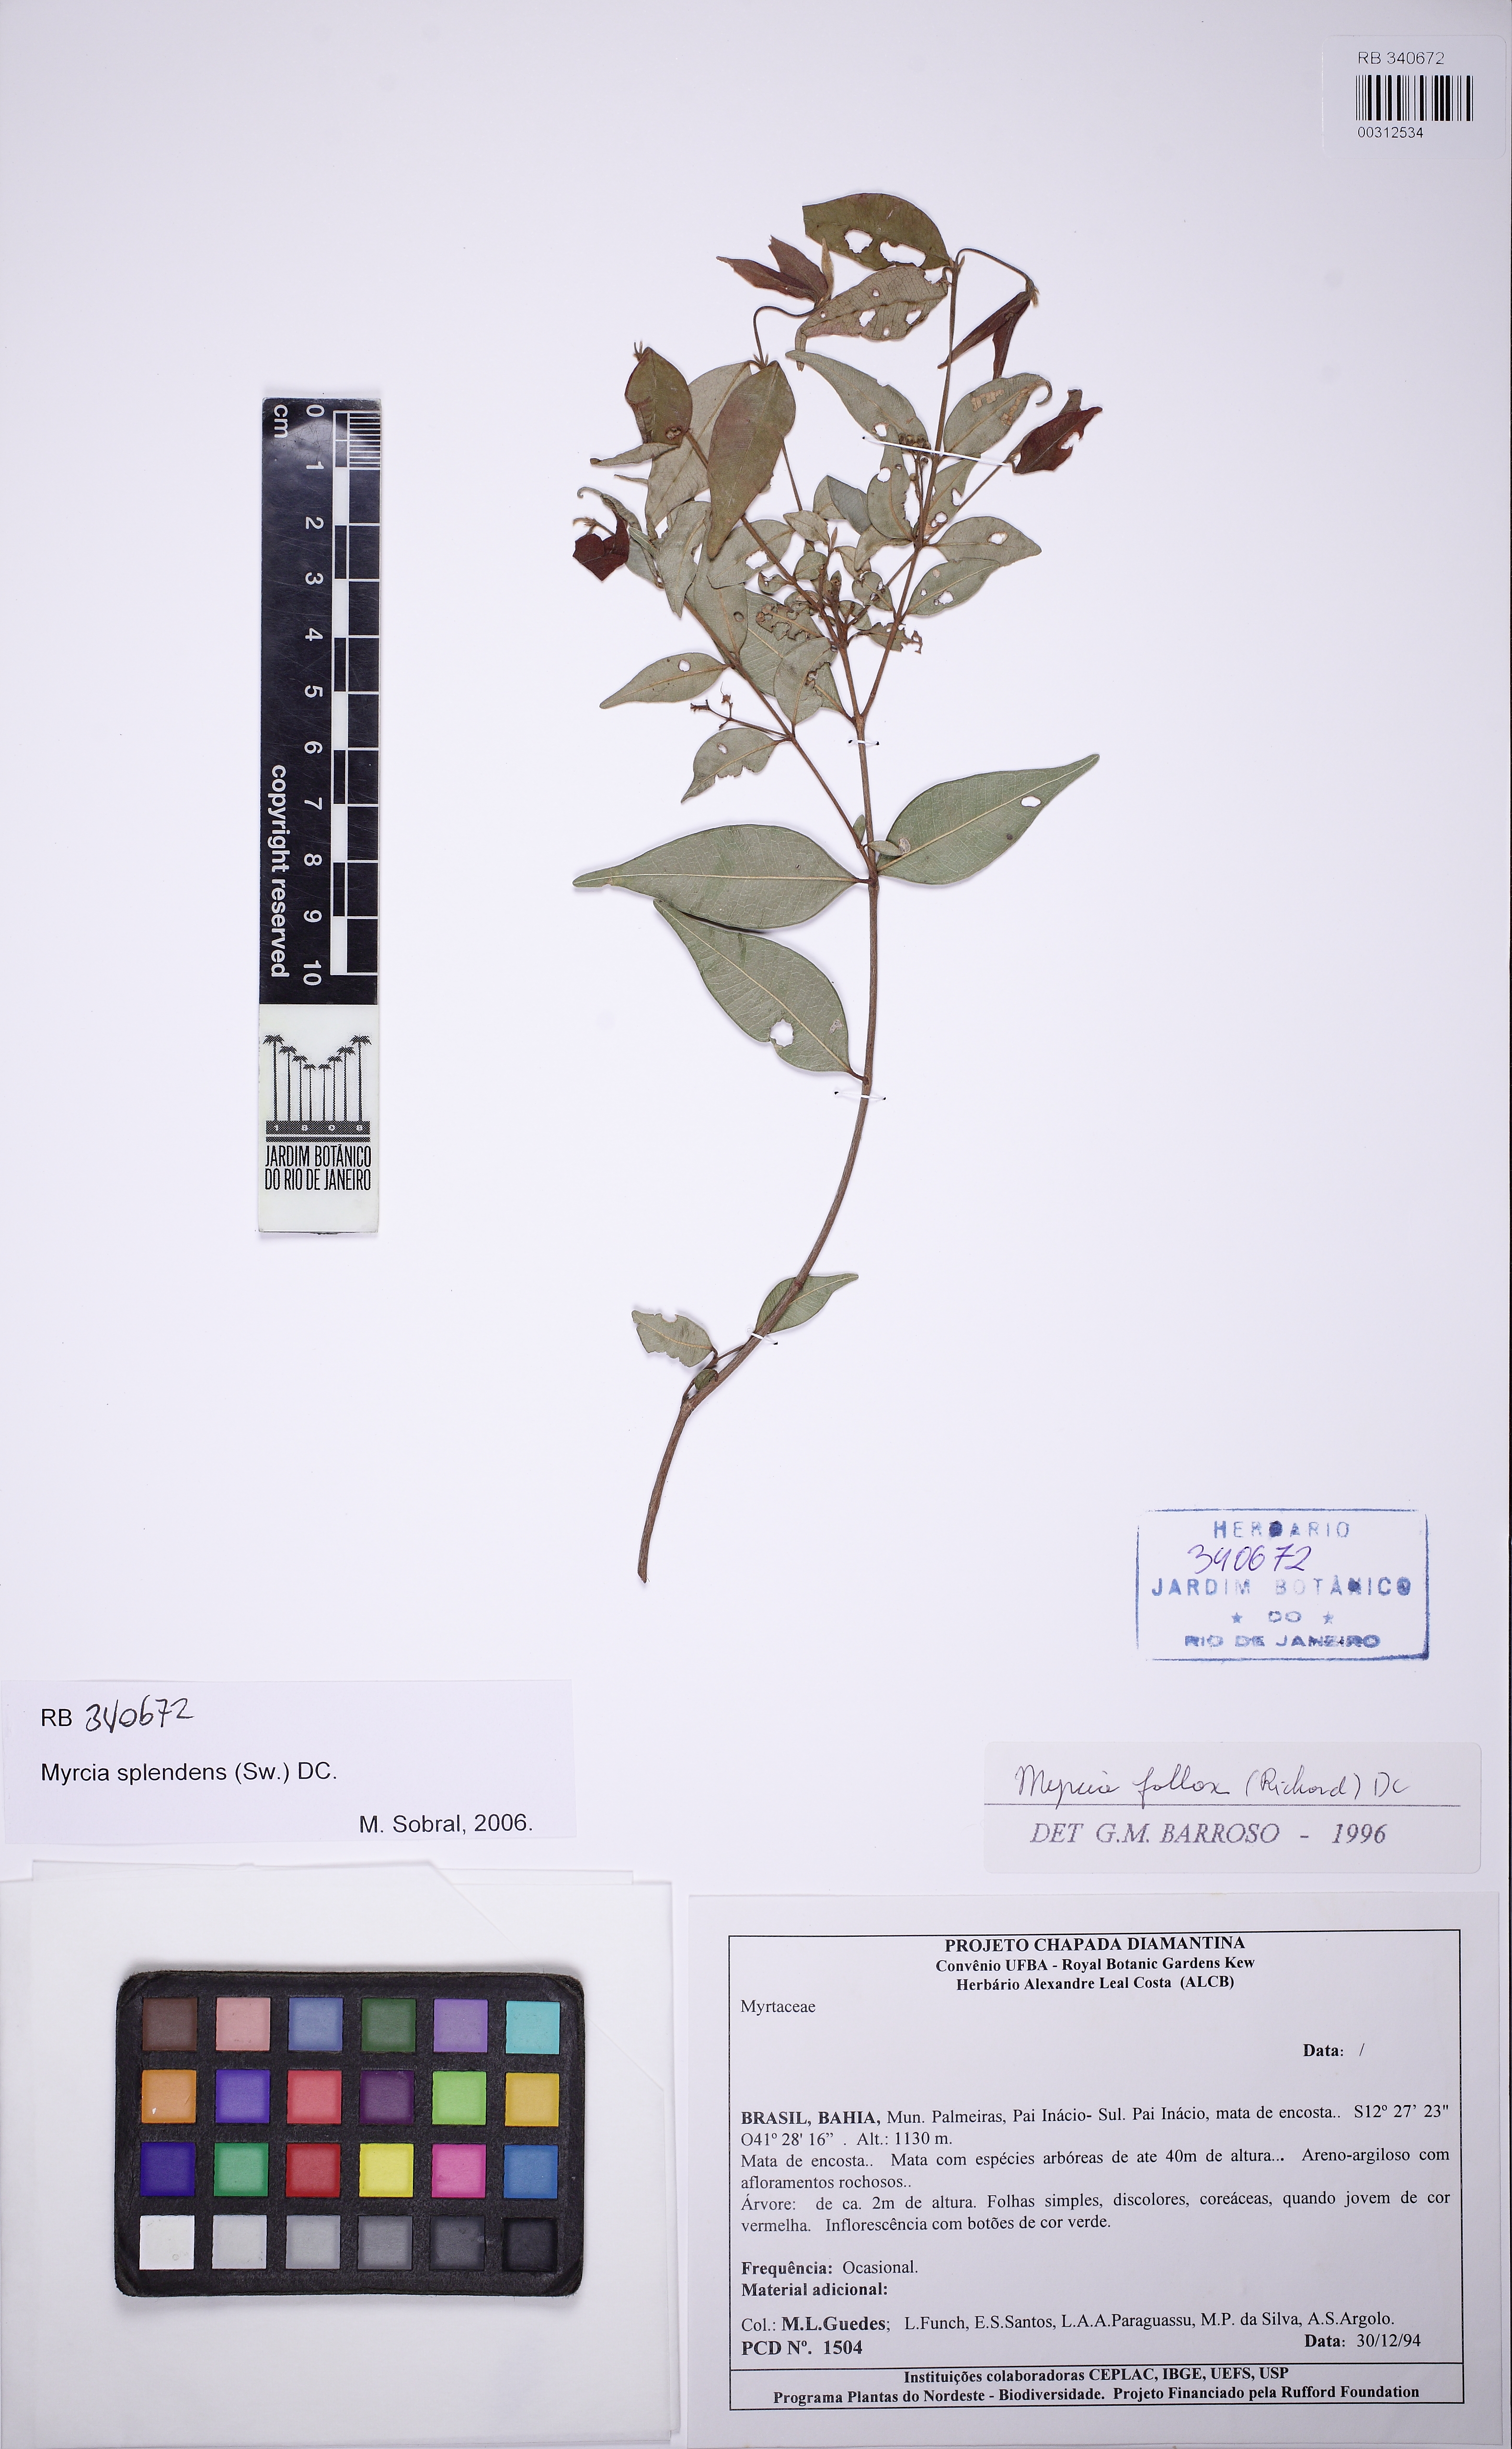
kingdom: Plantae
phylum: Tracheophyta
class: Magnoliopsida
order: Myrtales
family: Myrtaceae
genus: Myrcia
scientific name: Myrcia splendens
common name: Surinam cherry
